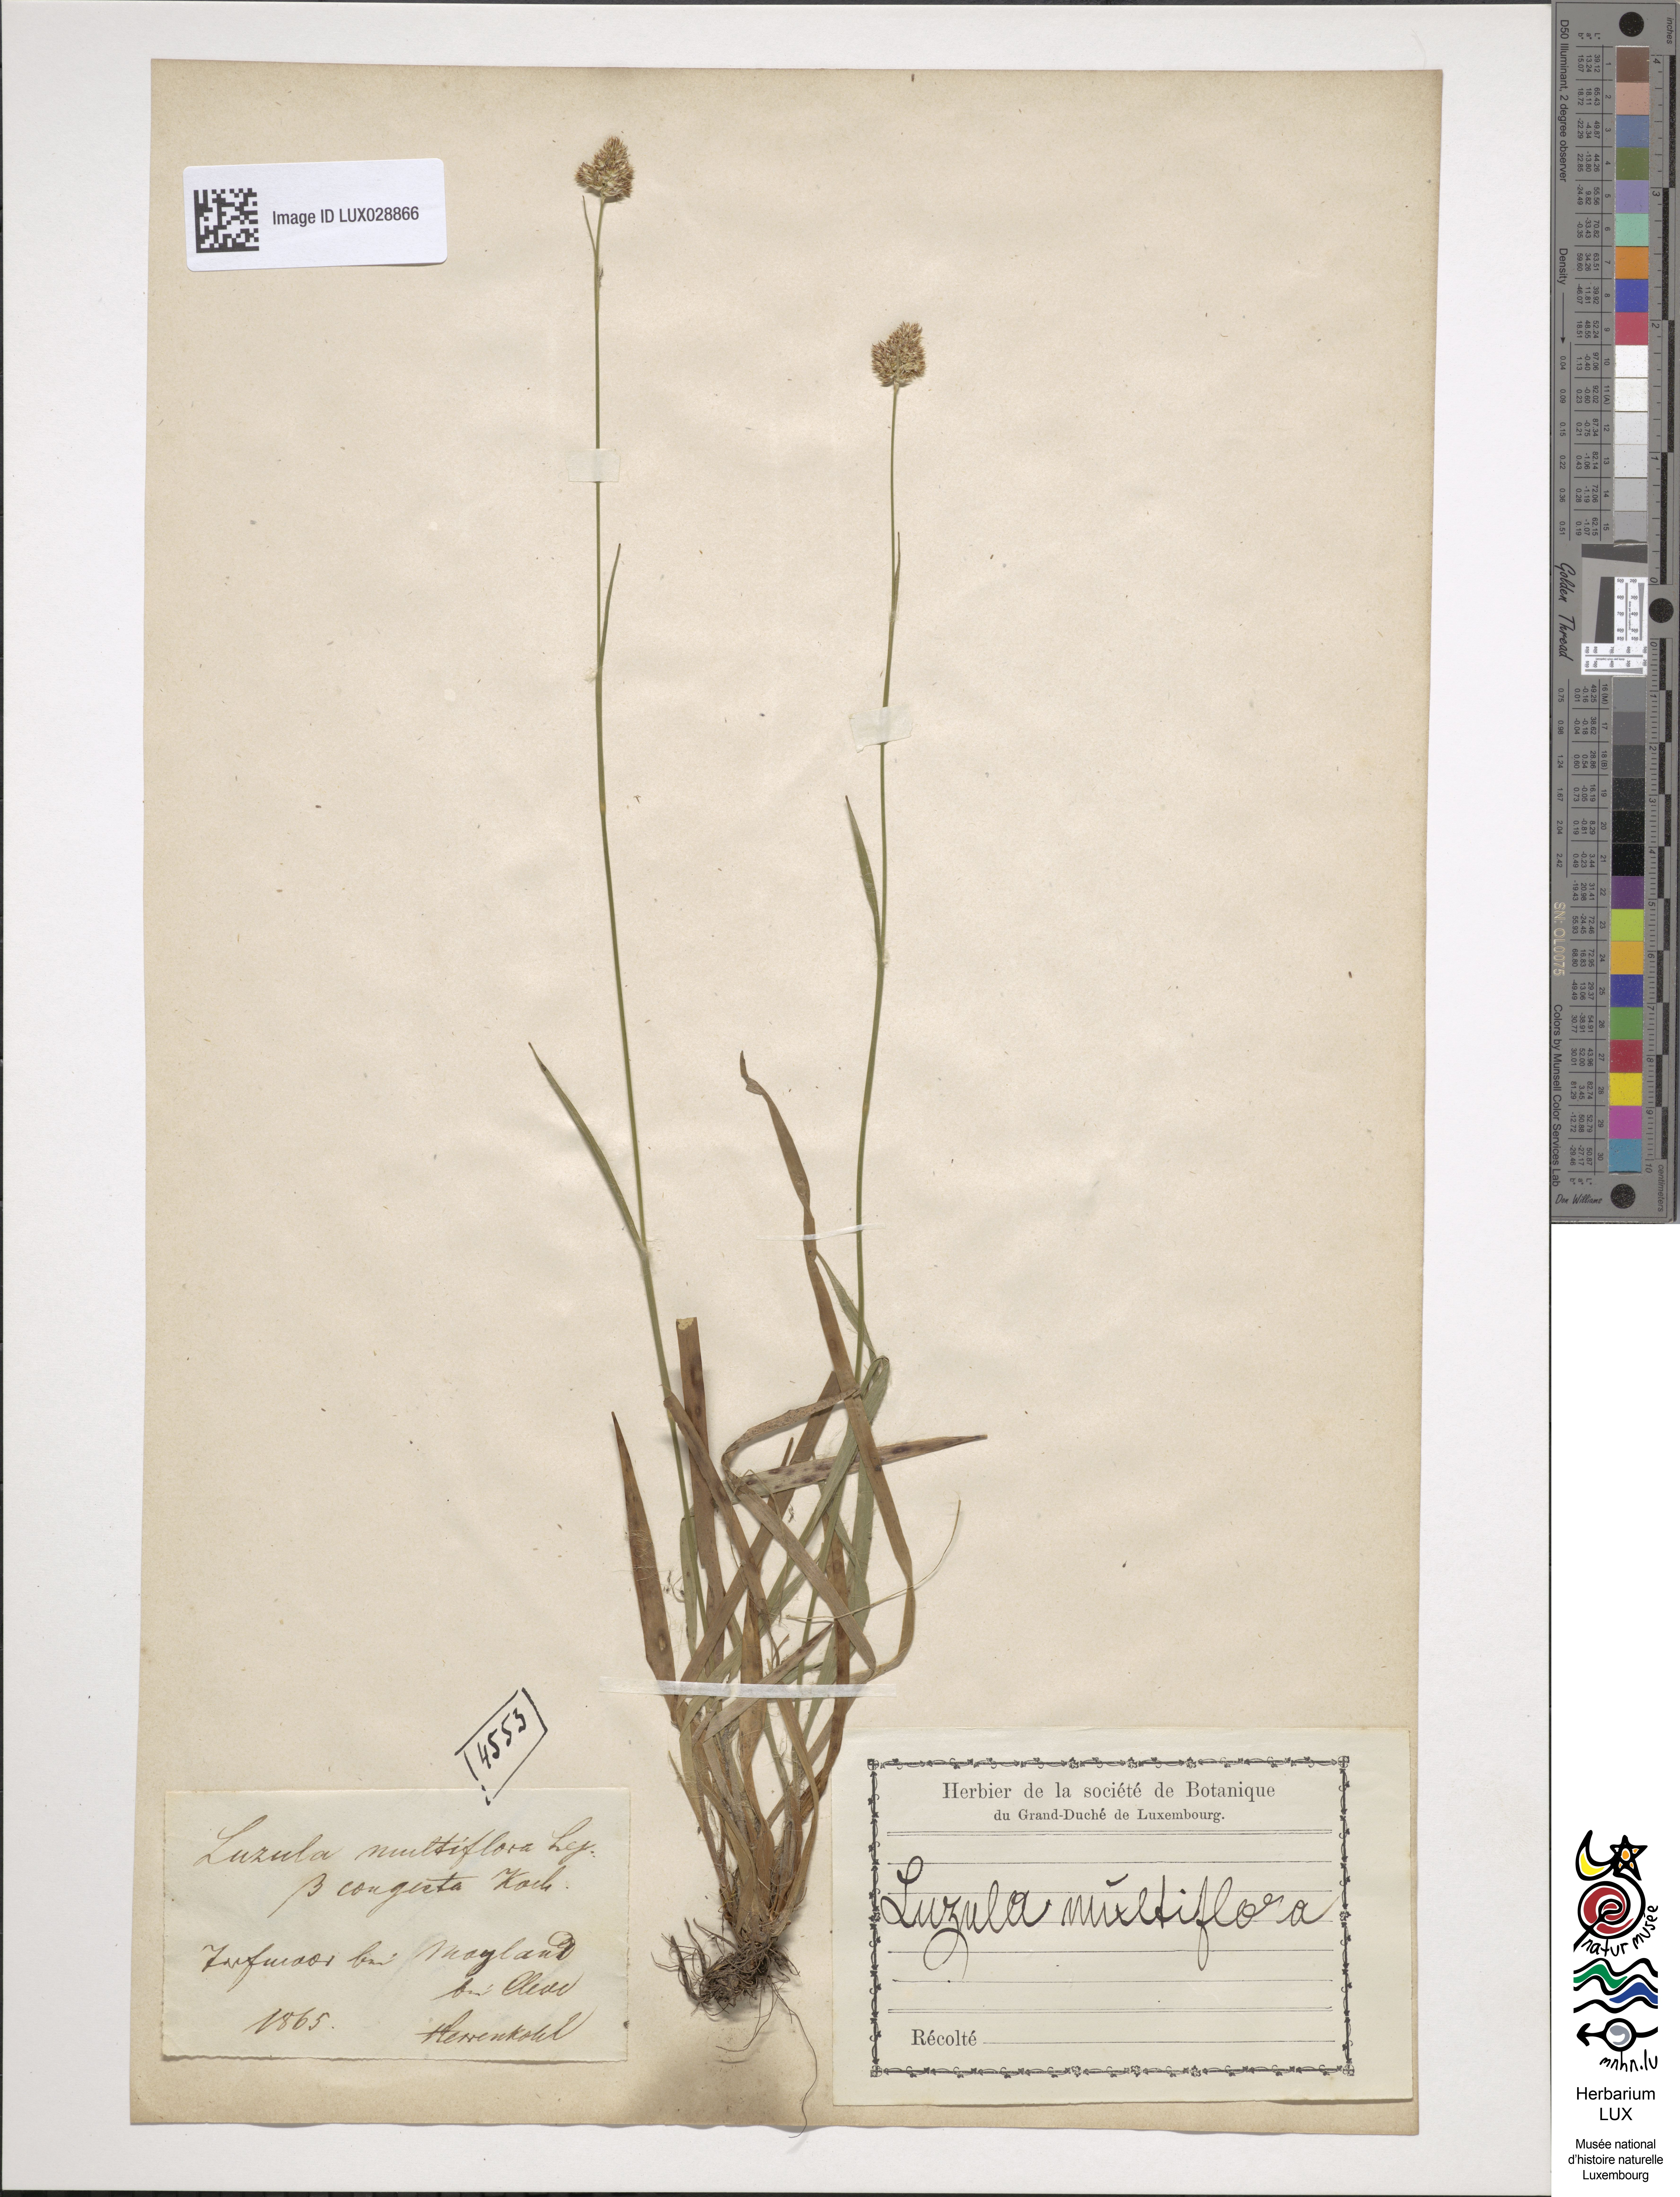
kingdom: Plantae
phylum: Tracheophyta
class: Liliopsida
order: Poales
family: Juncaceae
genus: Luzula
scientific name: Luzula multiflora
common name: Heath wood-rush
